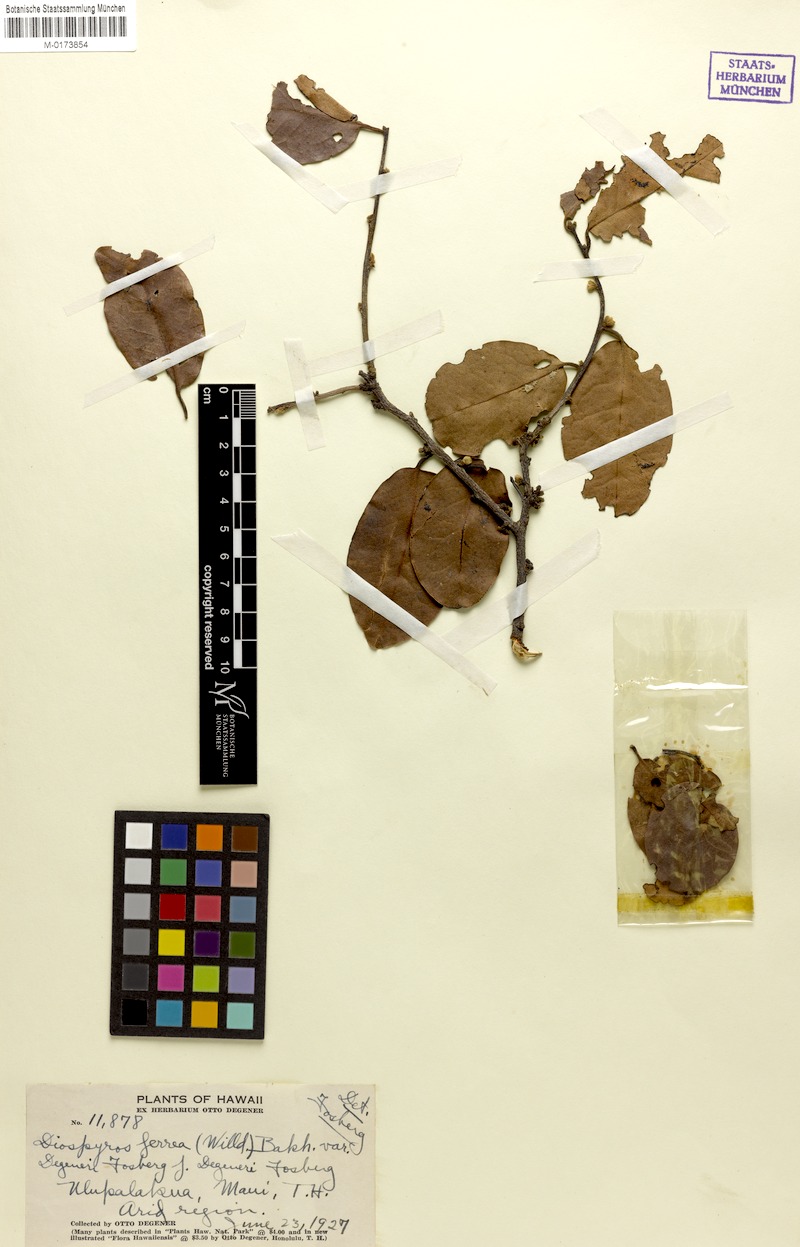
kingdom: Plantae
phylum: Tracheophyta
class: Magnoliopsida
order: Ericales
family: Ebenaceae
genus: Diospyros
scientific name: Diospyros sandwicensis
